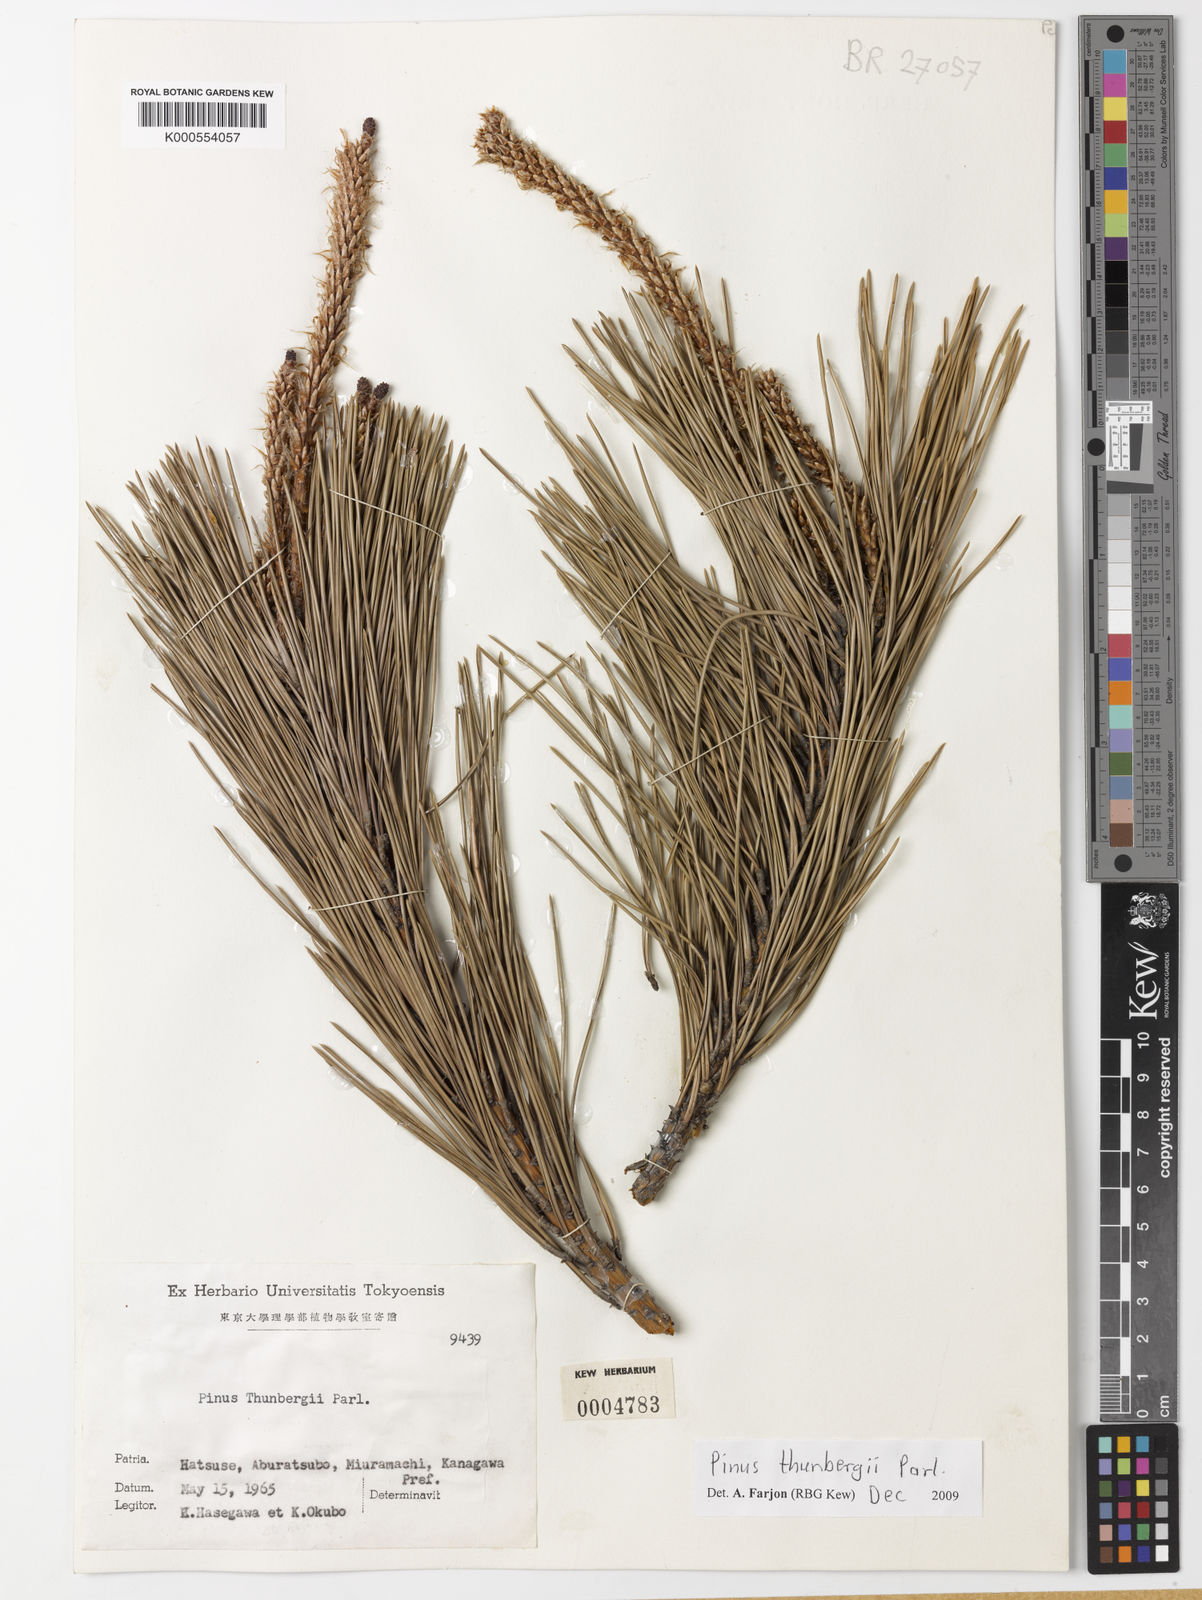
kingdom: Plantae
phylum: Tracheophyta
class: Pinopsida
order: Pinales
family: Pinaceae
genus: Pinus
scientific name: Pinus thunbergii
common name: Japanese black pine
